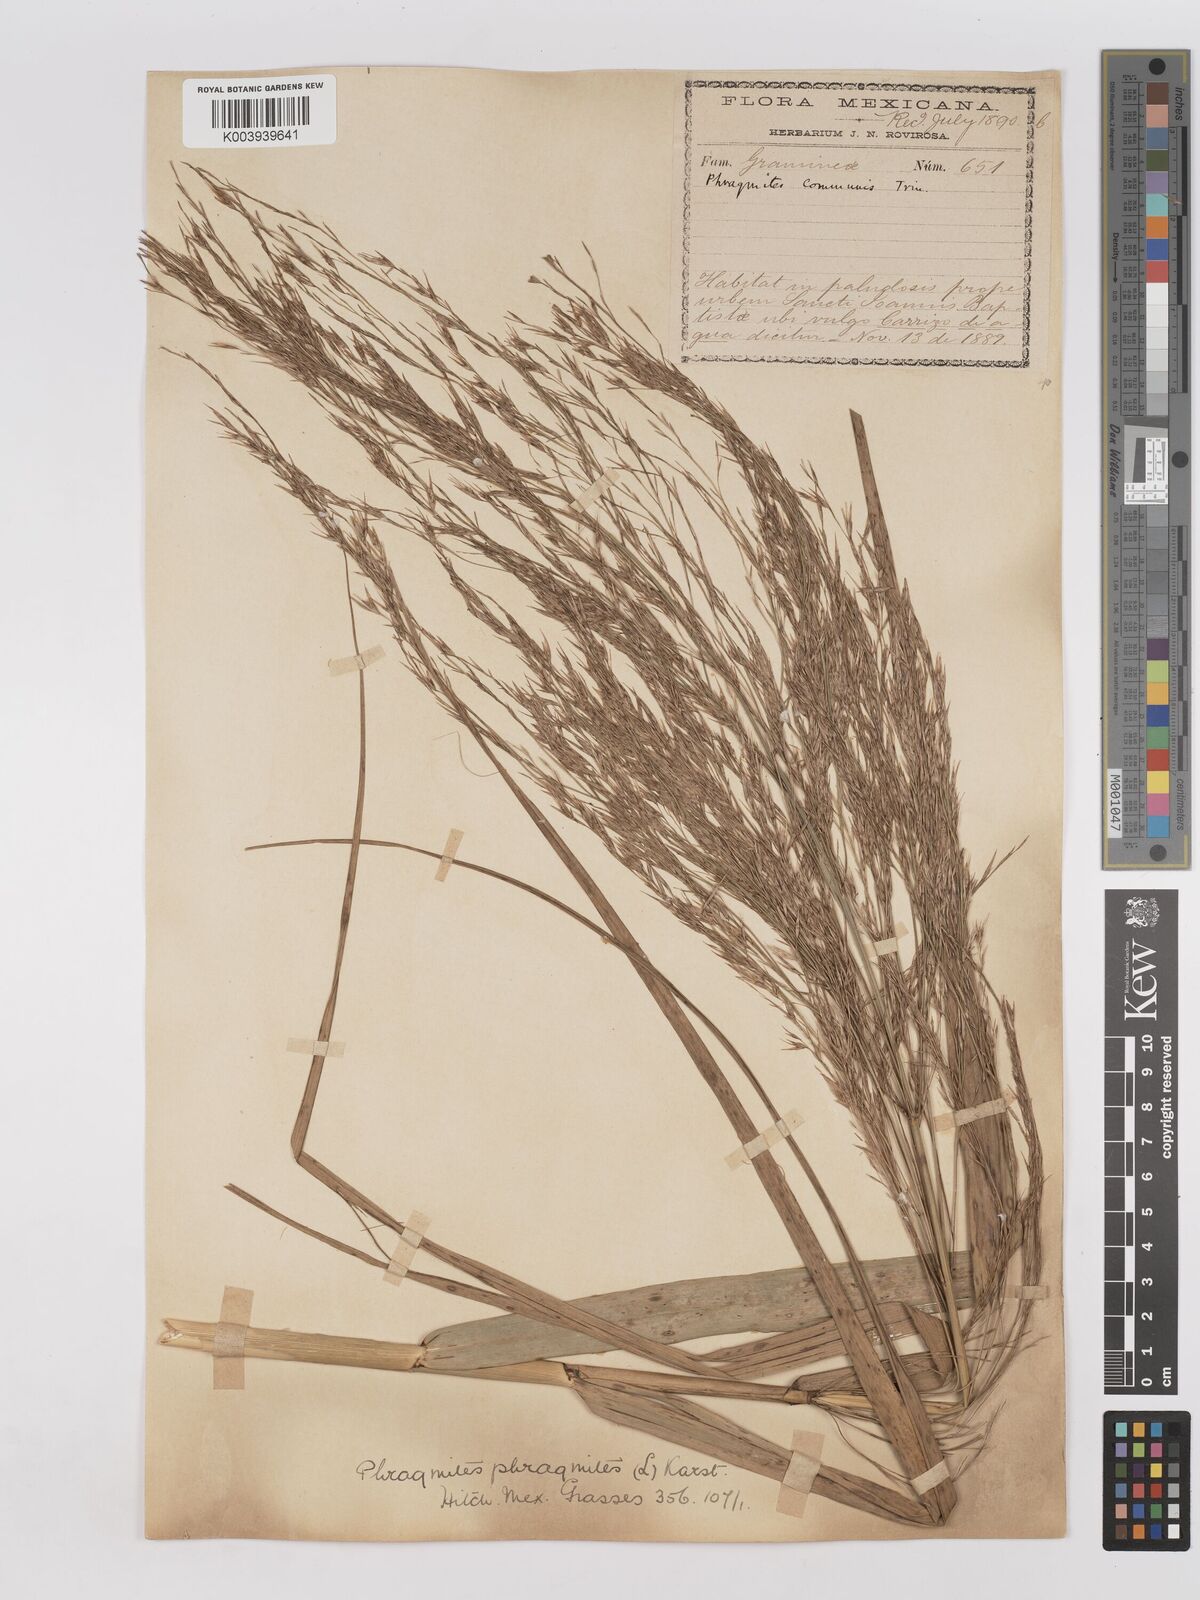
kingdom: Plantae
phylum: Tracheophyta
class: Liliopsida
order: Poales
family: Poaceae
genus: Phragmites
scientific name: Phragmites australis
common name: Common reed
